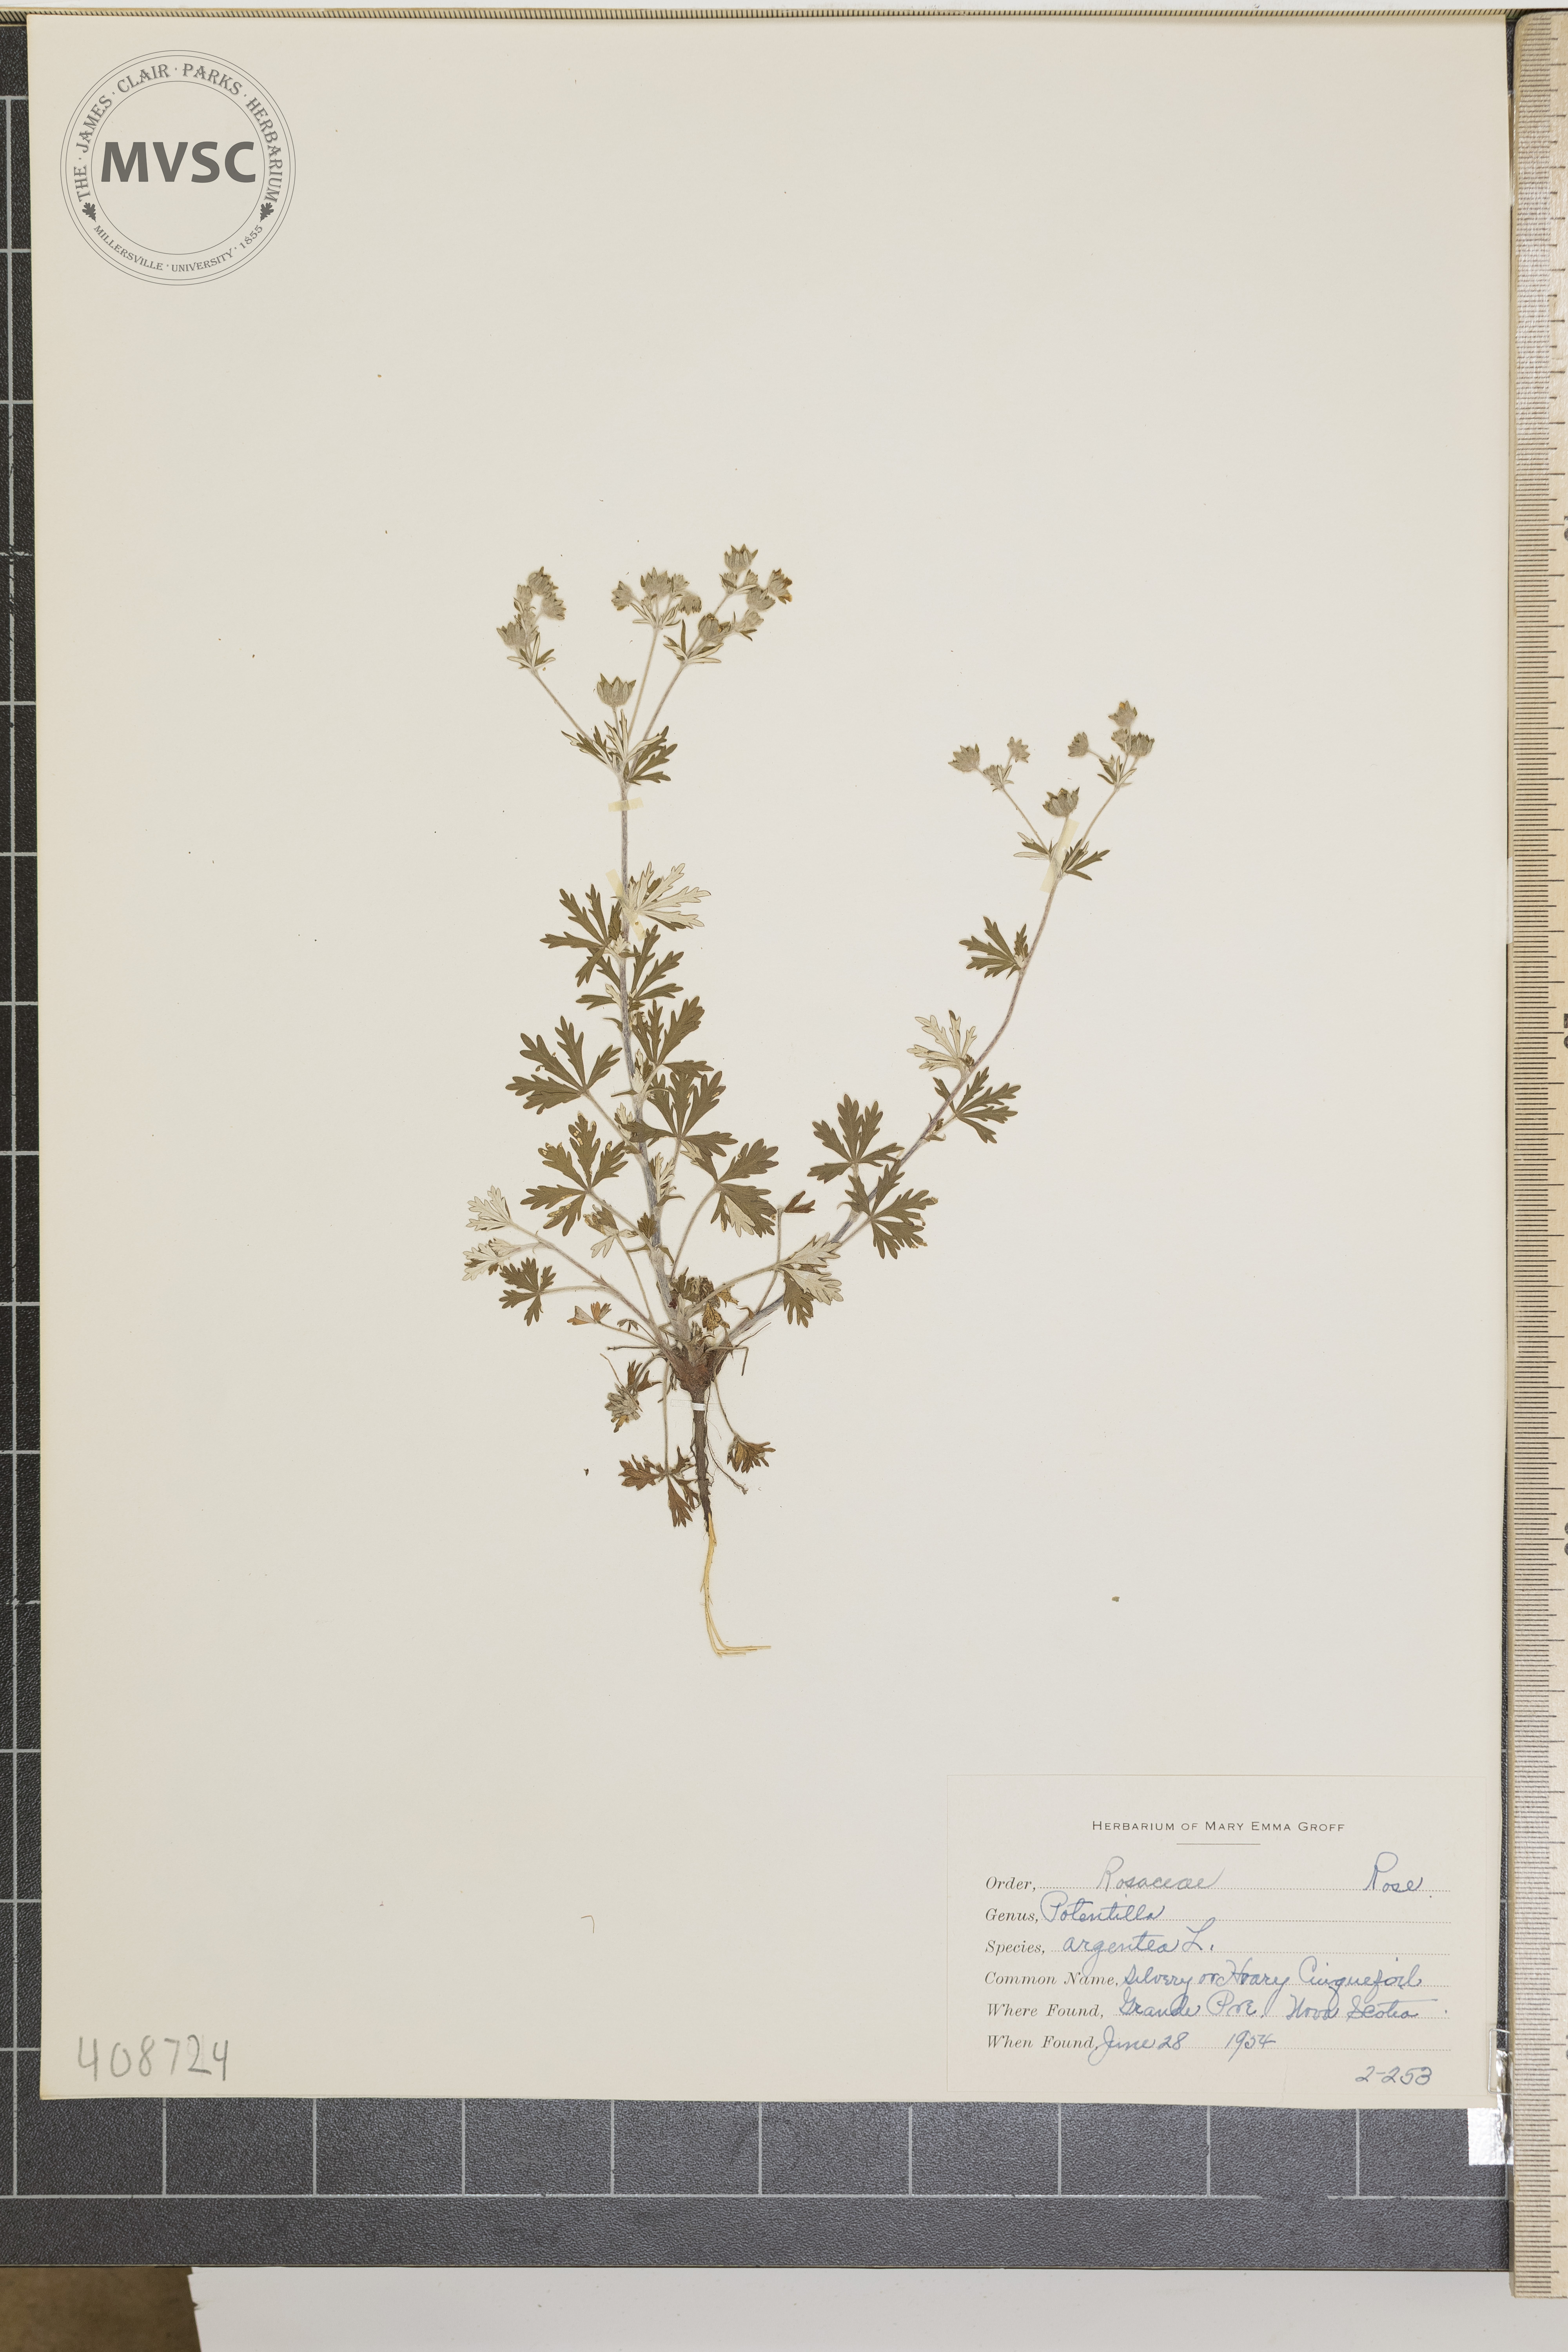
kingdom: Plantae
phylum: Tracheophyta
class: Magnoliopsida
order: Rosales
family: Rosaceae
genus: Potentilla
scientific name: Potentilla argentea
